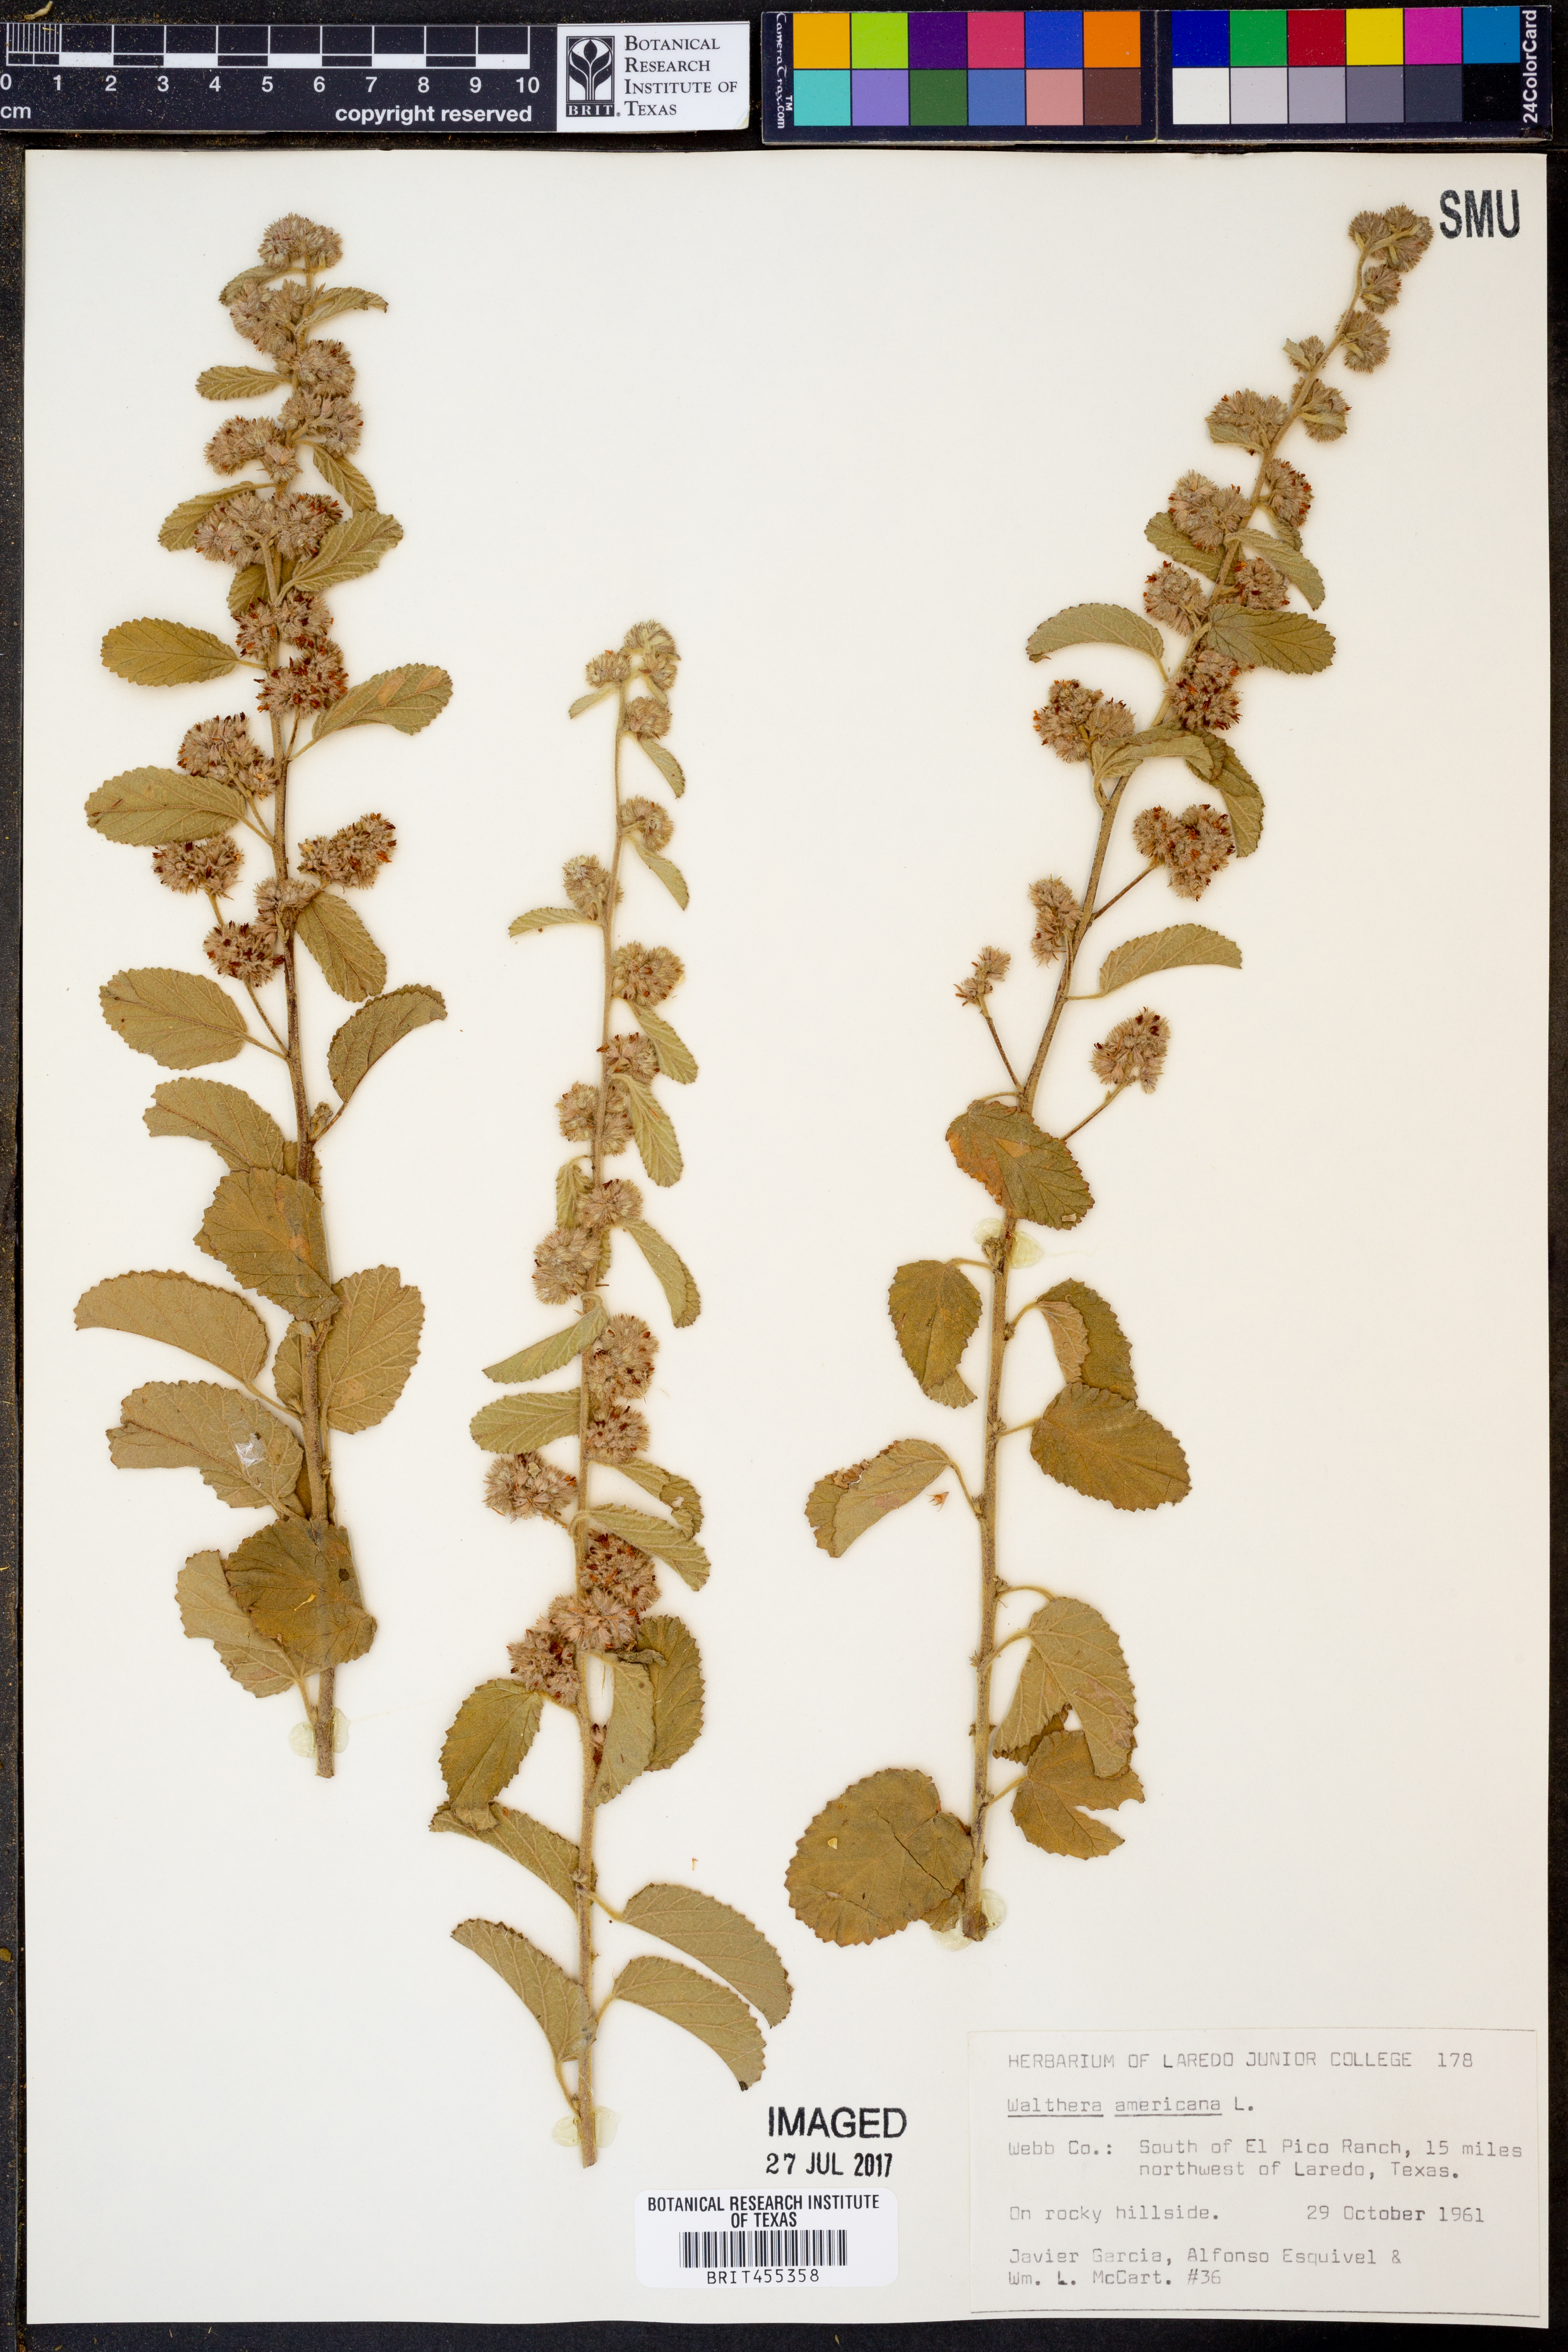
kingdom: Plantae
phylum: Tracheophyta
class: Magnoliopsida
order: Malvales
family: Malvaceae
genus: Waltheria
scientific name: Waltheria indica
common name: Leather-coat
